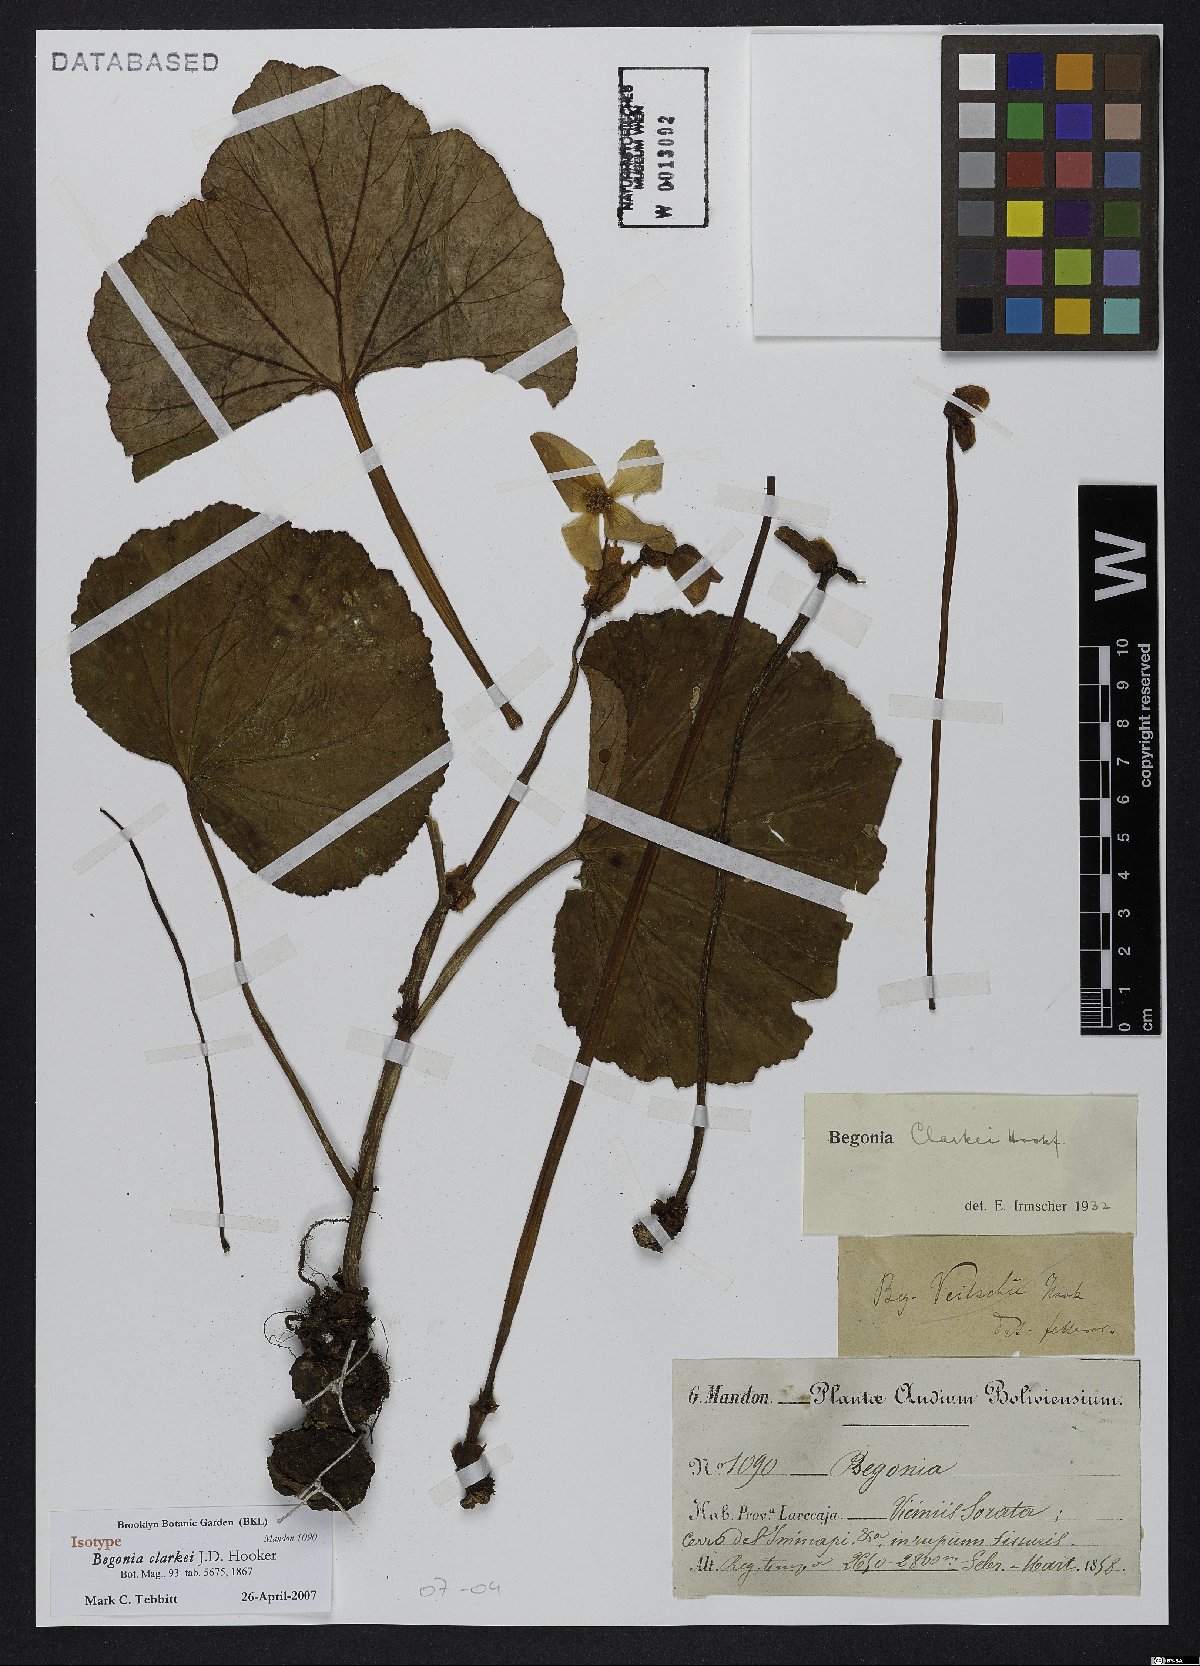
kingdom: Plantae
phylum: Tracheophyta
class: Magnoliopsida
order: Cucurbitales
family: Begoniaceae
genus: Begonia
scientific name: Begonia clarkei
